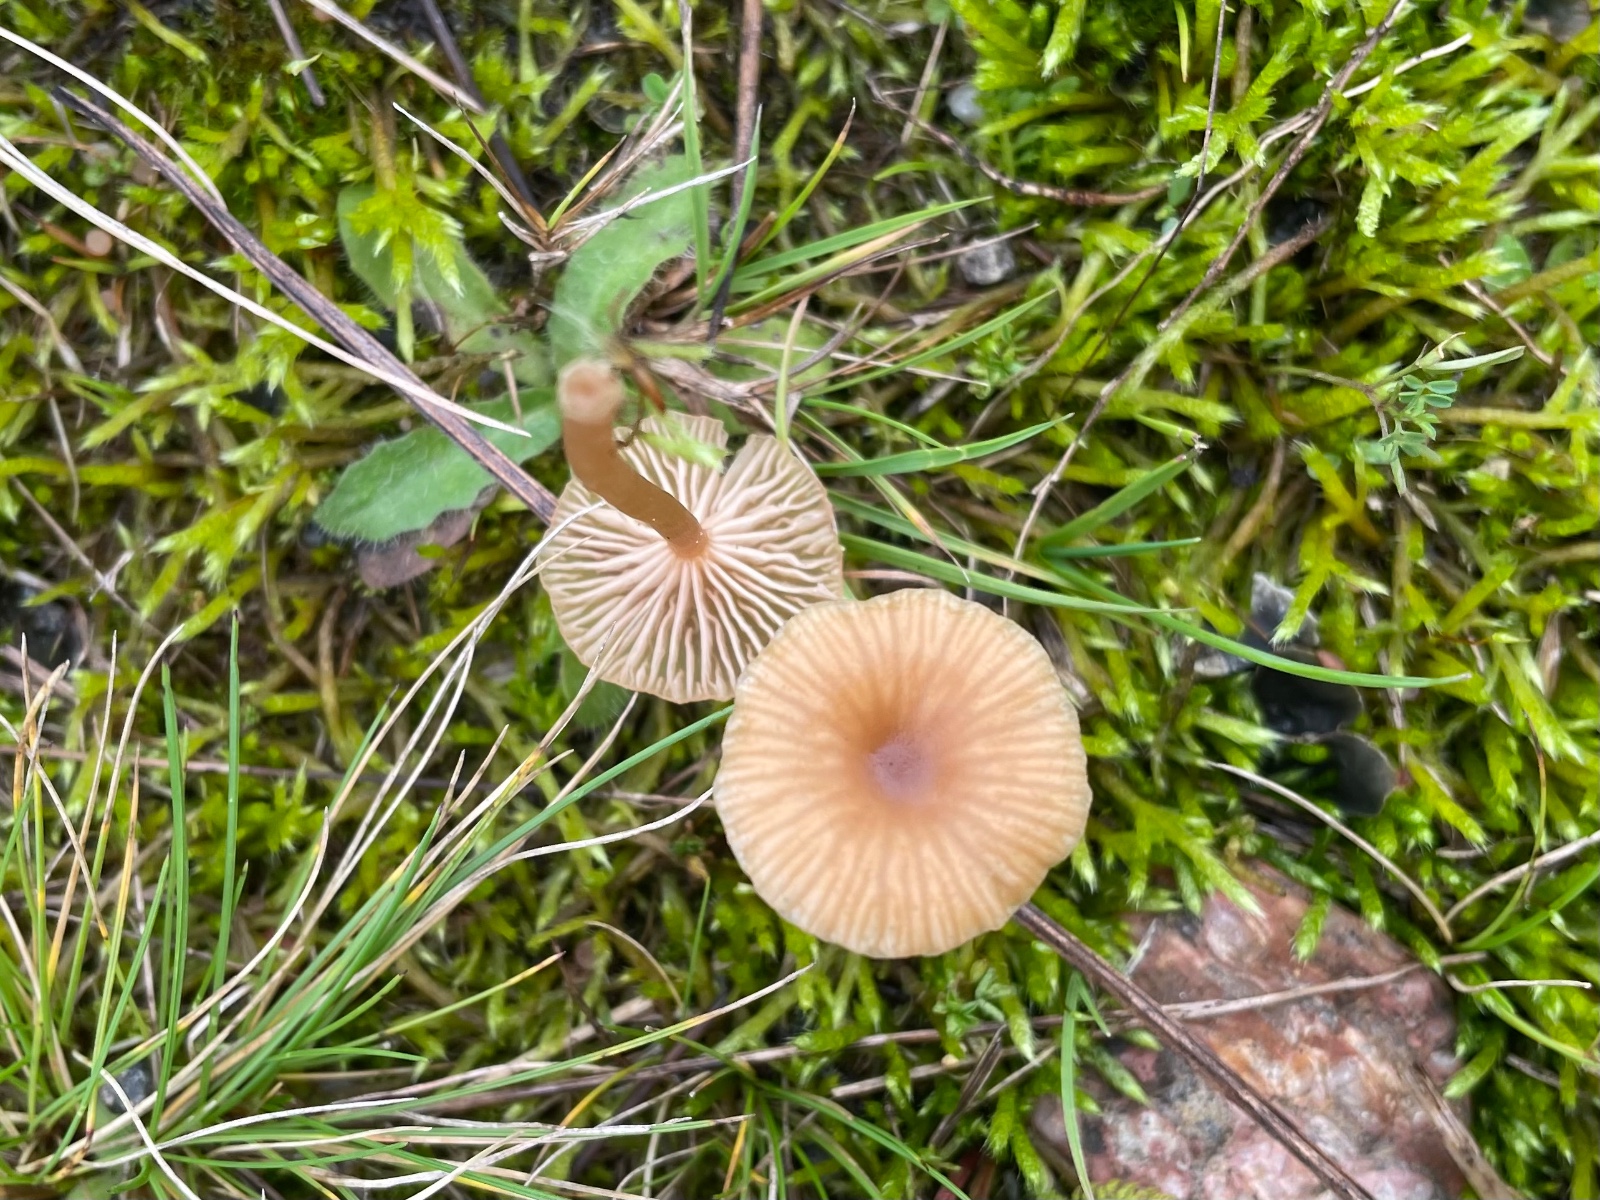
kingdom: Fungi
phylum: Basidiomycota
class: Agaricomycetes
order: Agaricales
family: Tricholomataceae
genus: Omphalina
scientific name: Omphalina pyxidata
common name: rødbrun navlehat
